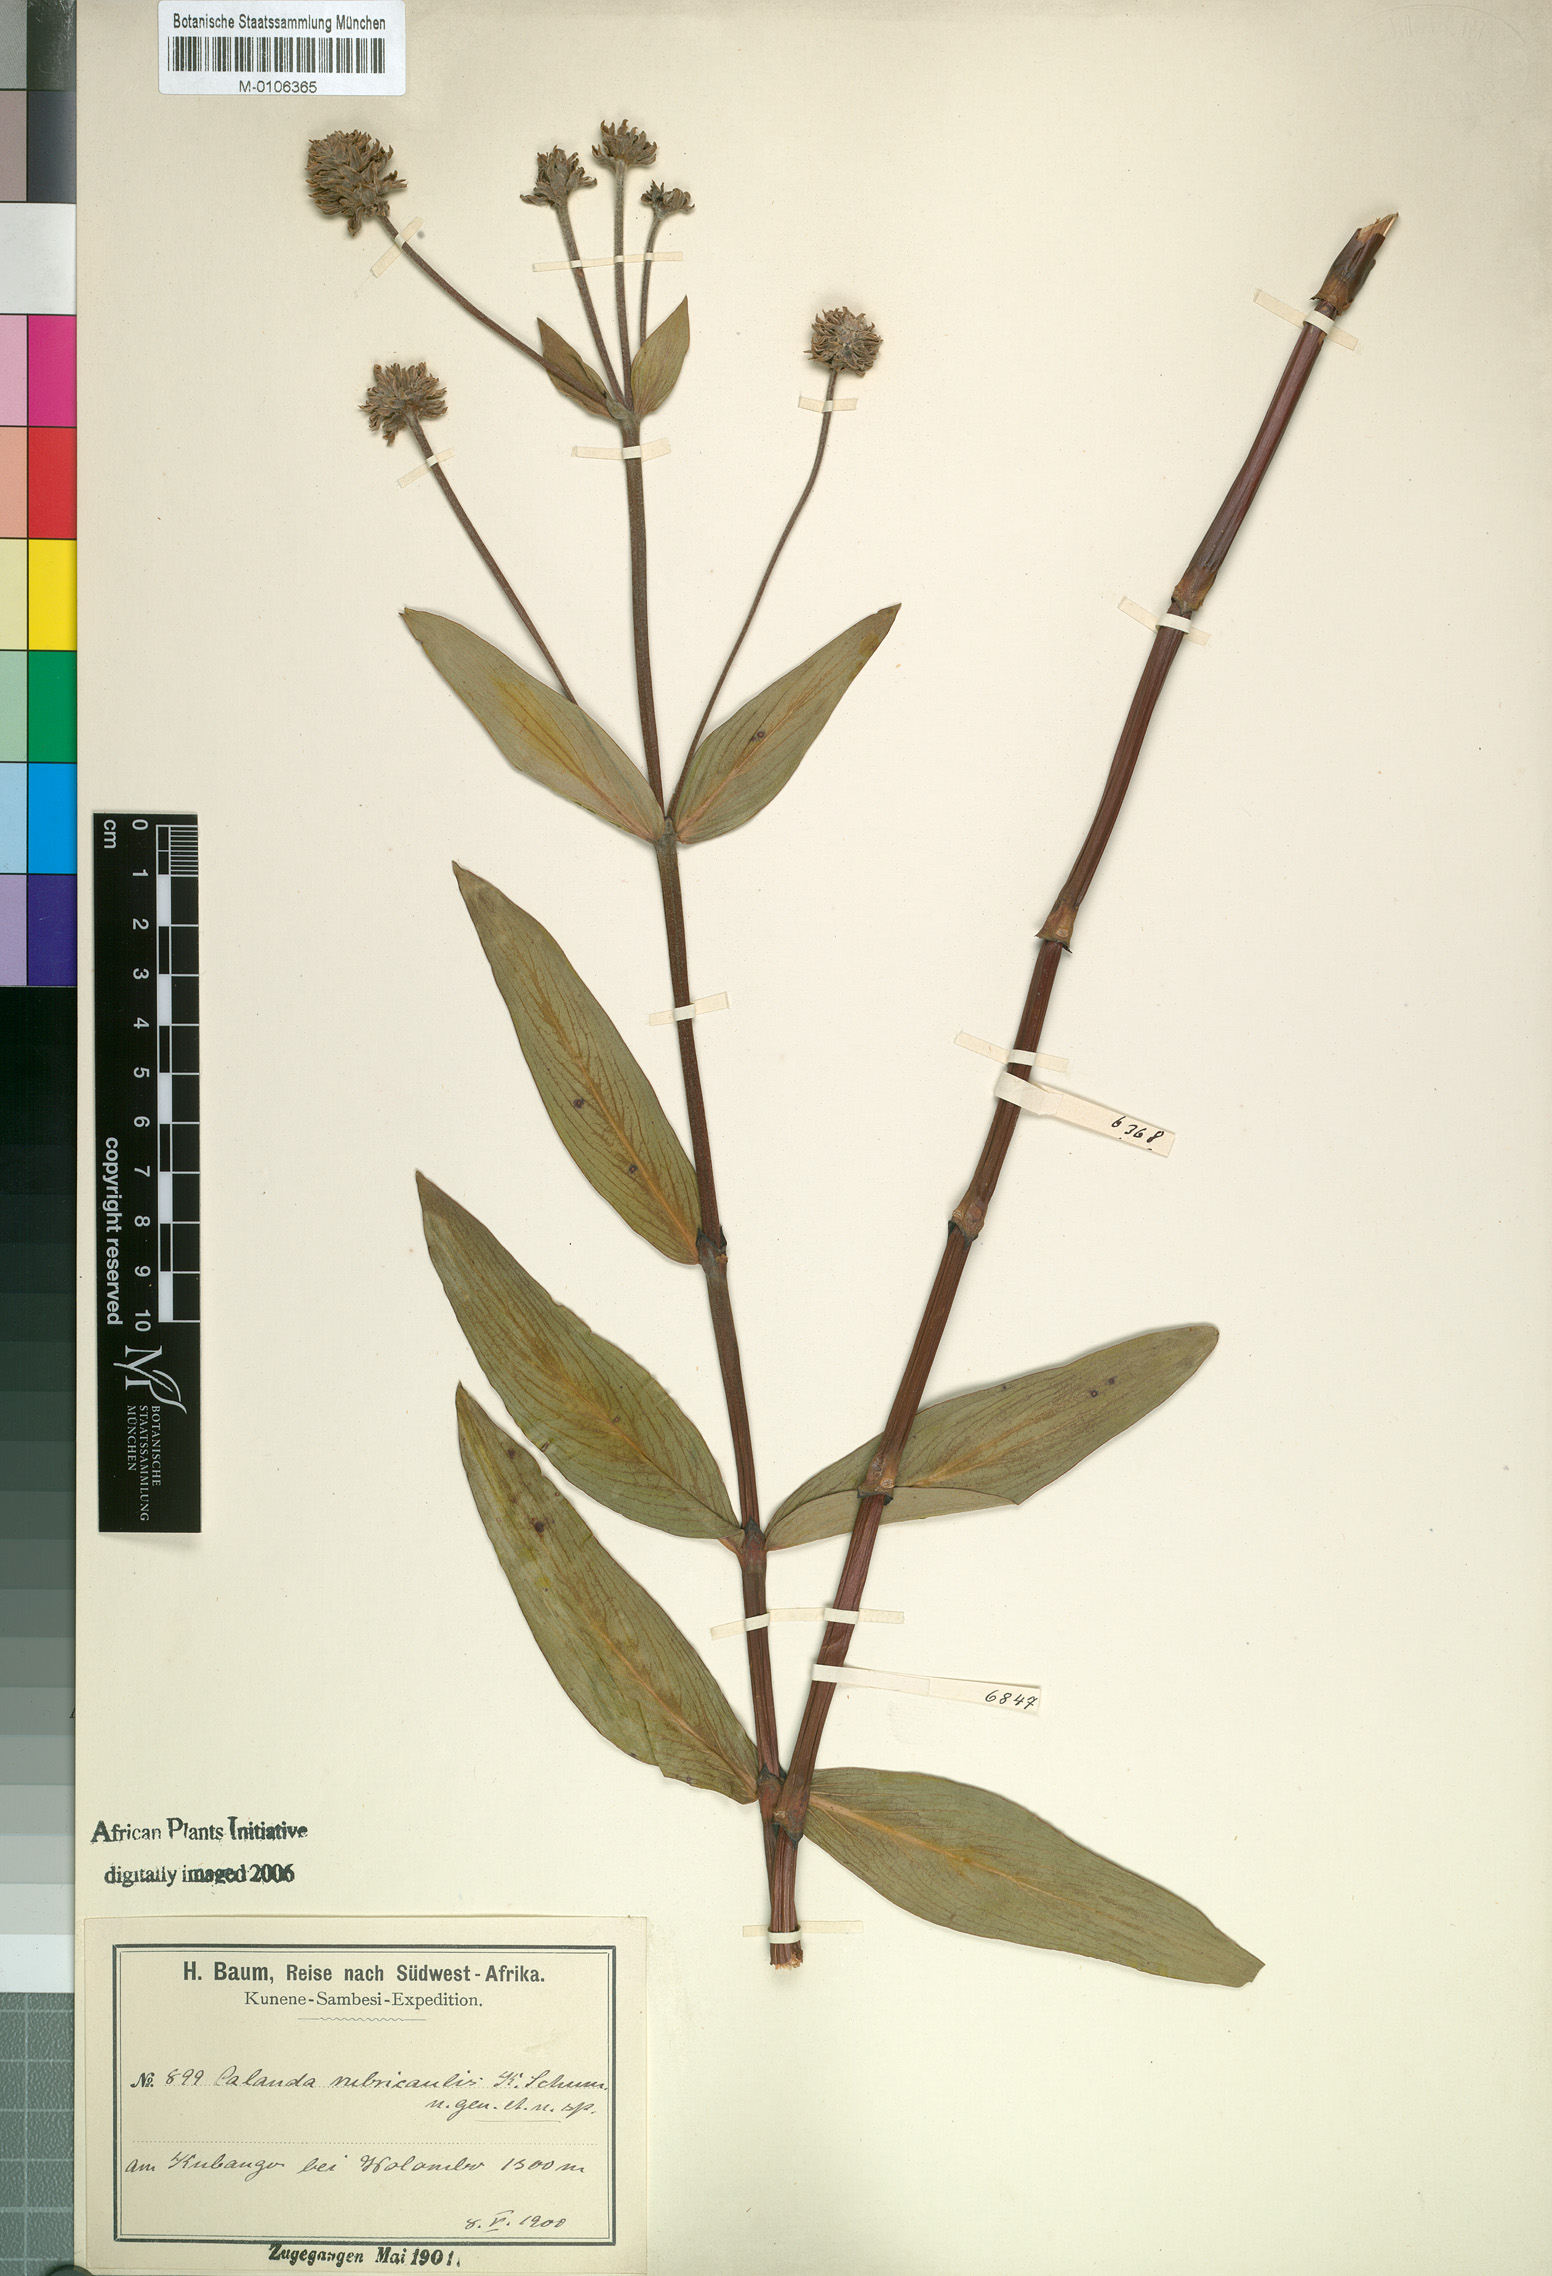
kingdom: Plantae
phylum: Tracheophyta
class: Magnoliopsida
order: Gentianales
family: Rubiaceae
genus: Pentanisia
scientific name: Pentanisia rubricaulis
